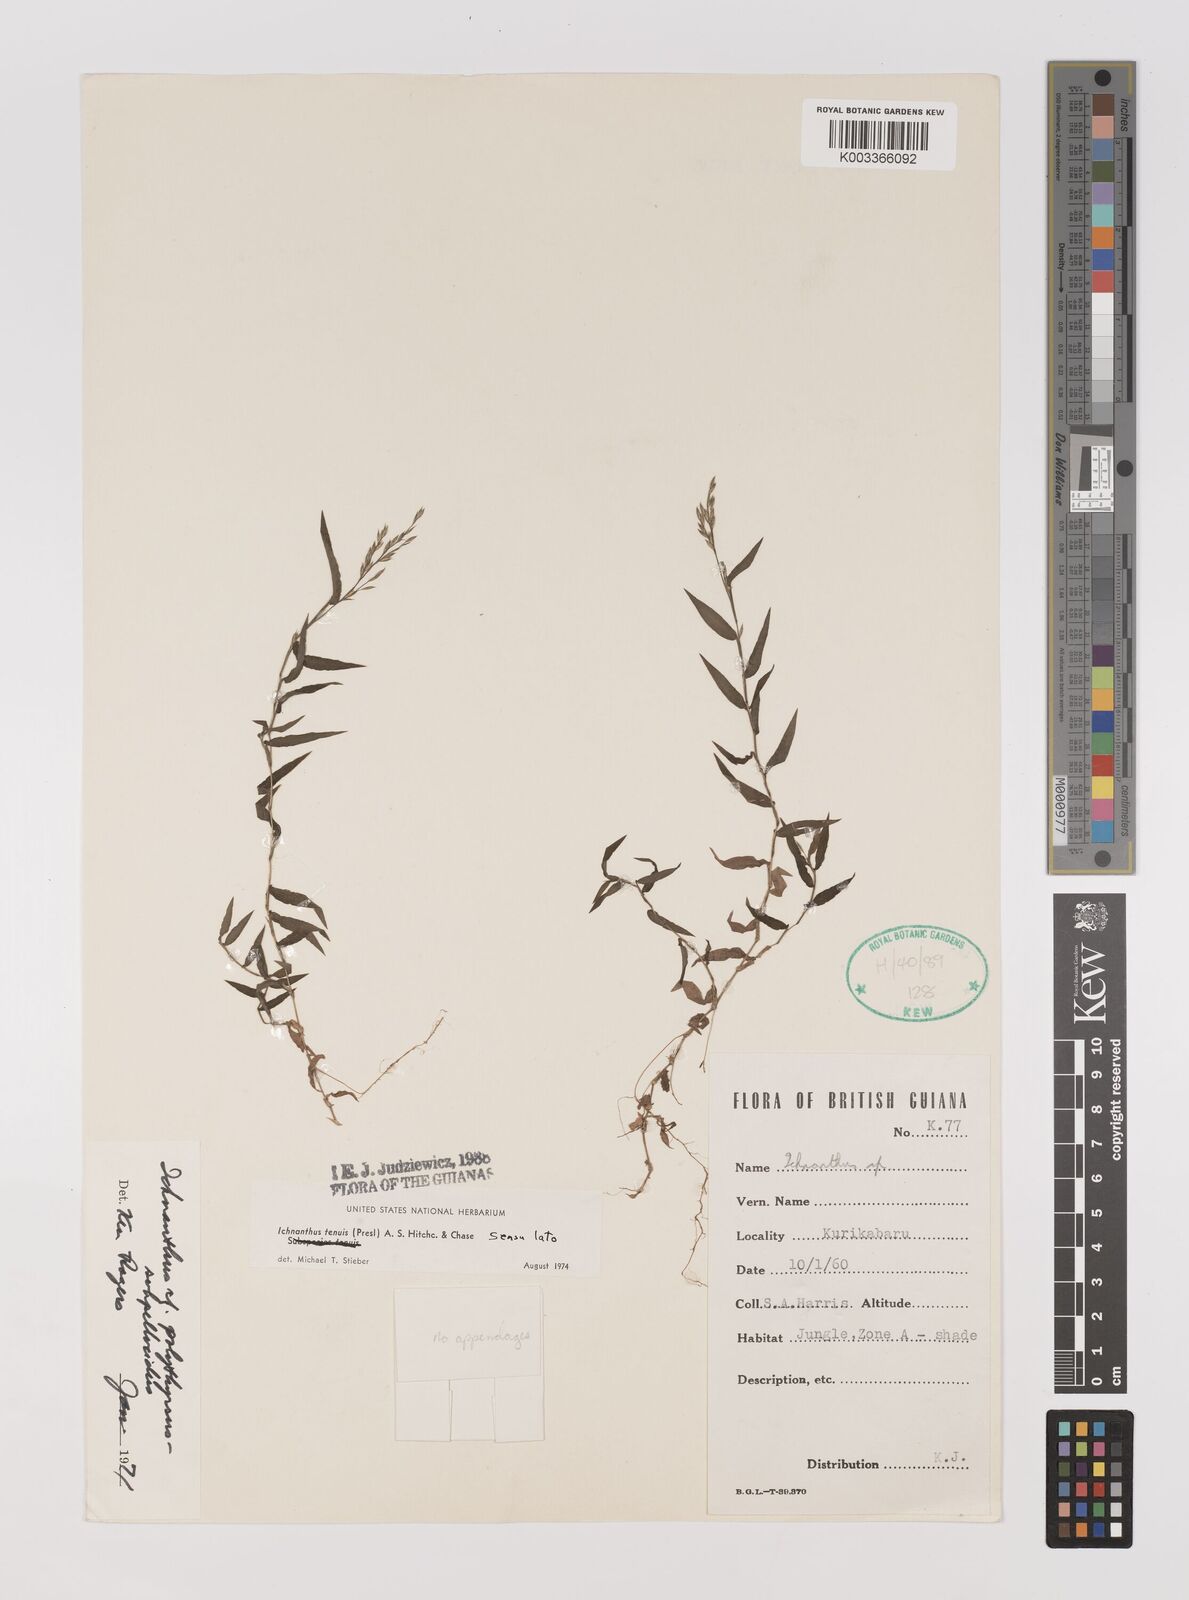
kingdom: Plantae
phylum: Tracheophyta
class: Liliopsida
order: Poales
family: Poaceae
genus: Ichnanthus
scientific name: Ichnanthus tenuis
